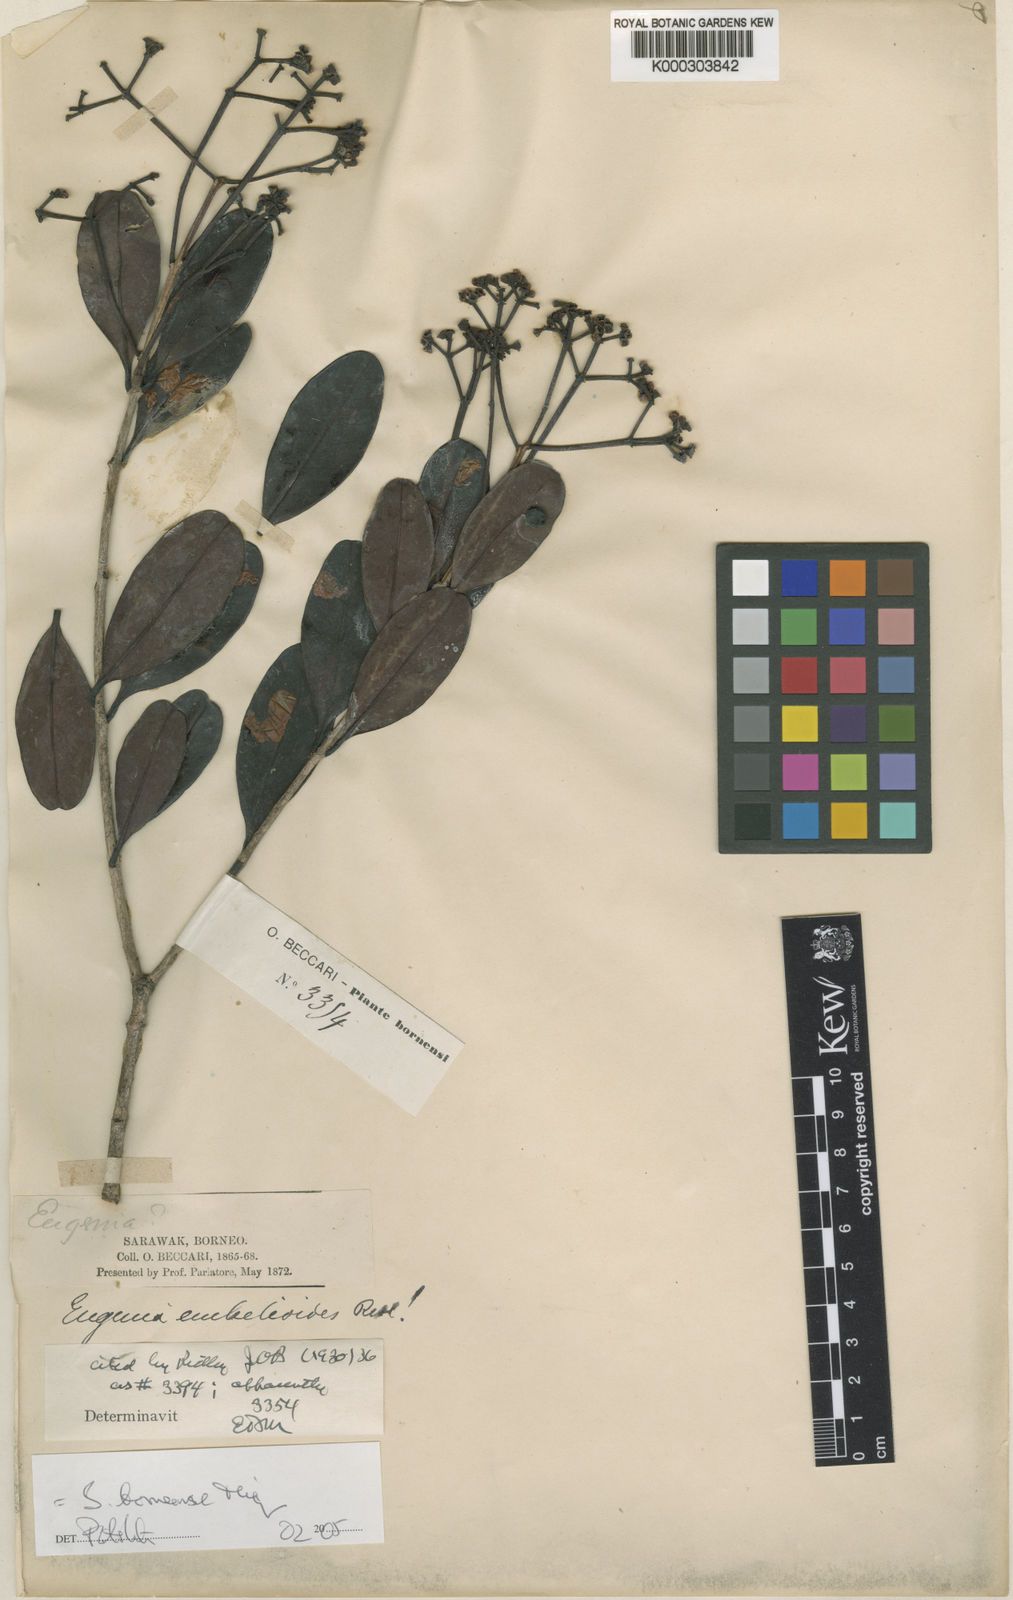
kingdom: Plantae
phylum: Tracheophyta
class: Magnoliopsida
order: Myrtales
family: Myrtaceae
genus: Syzygium
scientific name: Syzygium borneense
